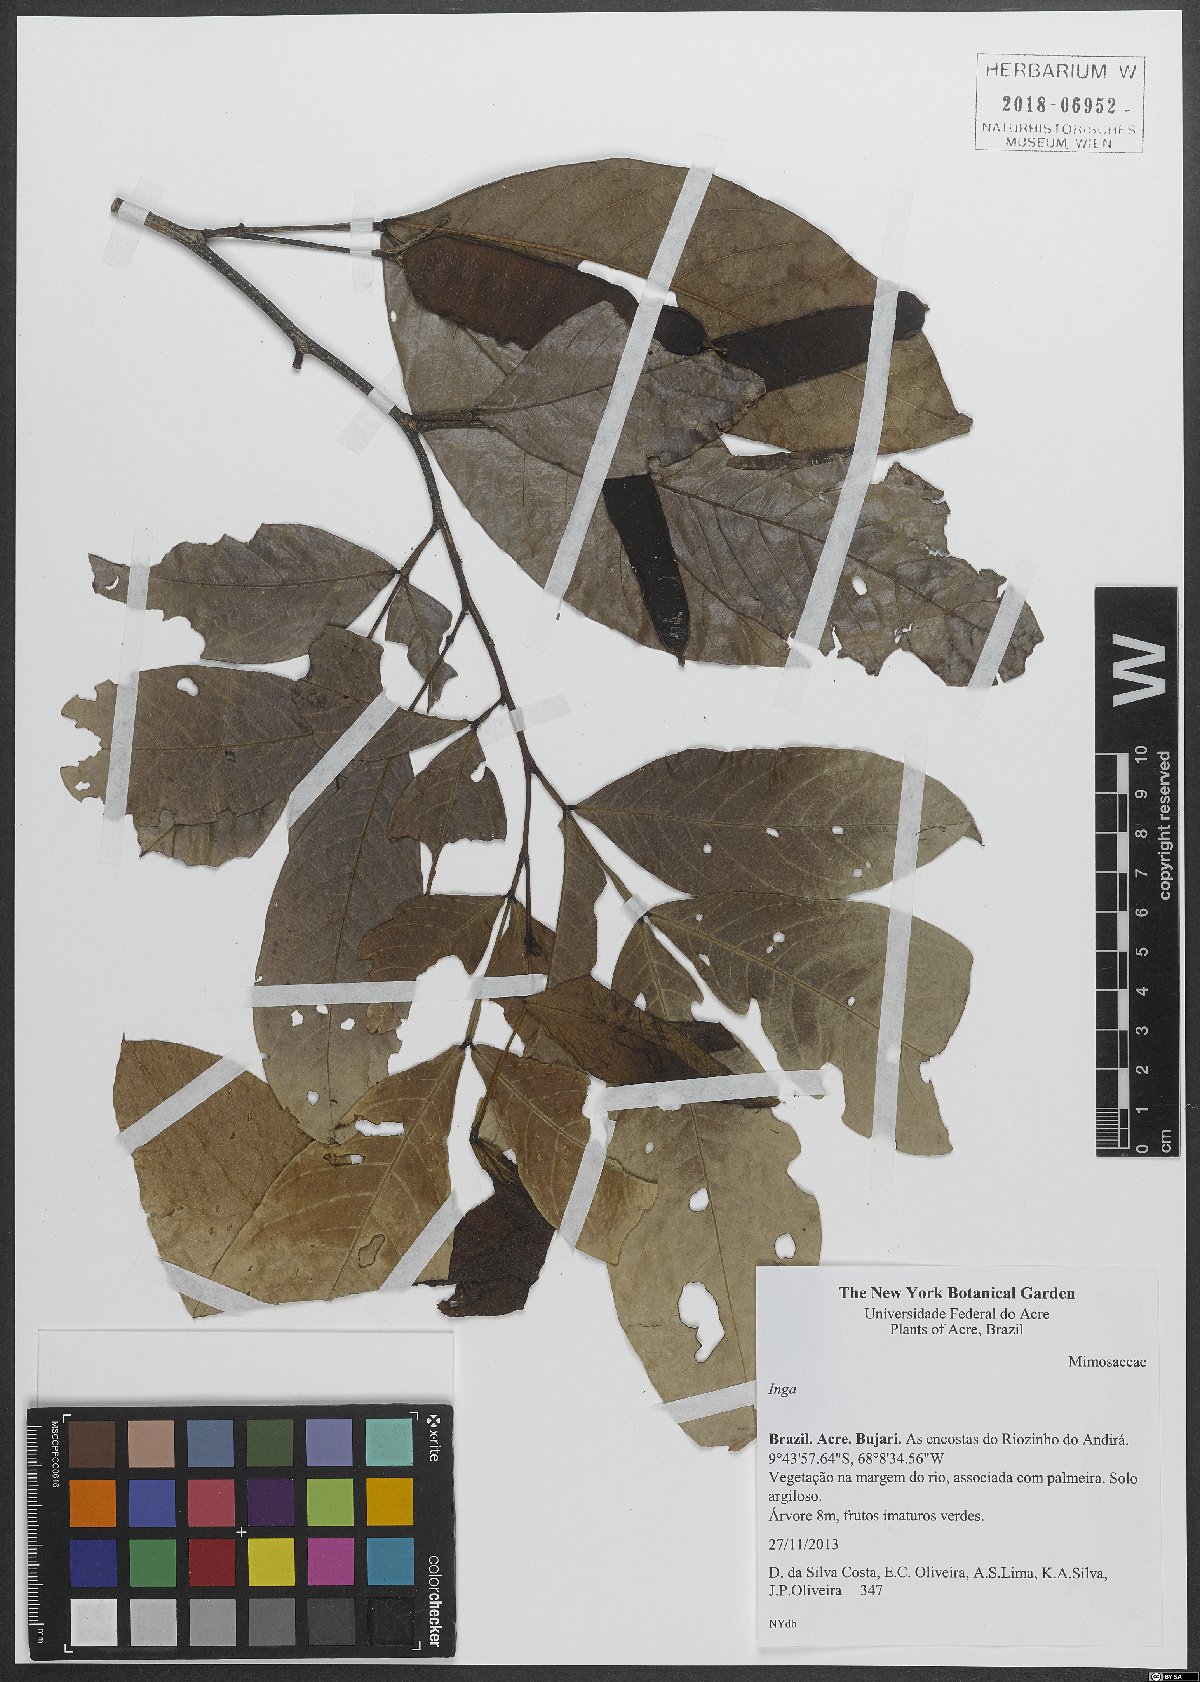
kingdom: Plantae
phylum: Tracheophyta
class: Magnoliopsida
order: Fabales
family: Fabaceae
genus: Inga
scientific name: Inga
